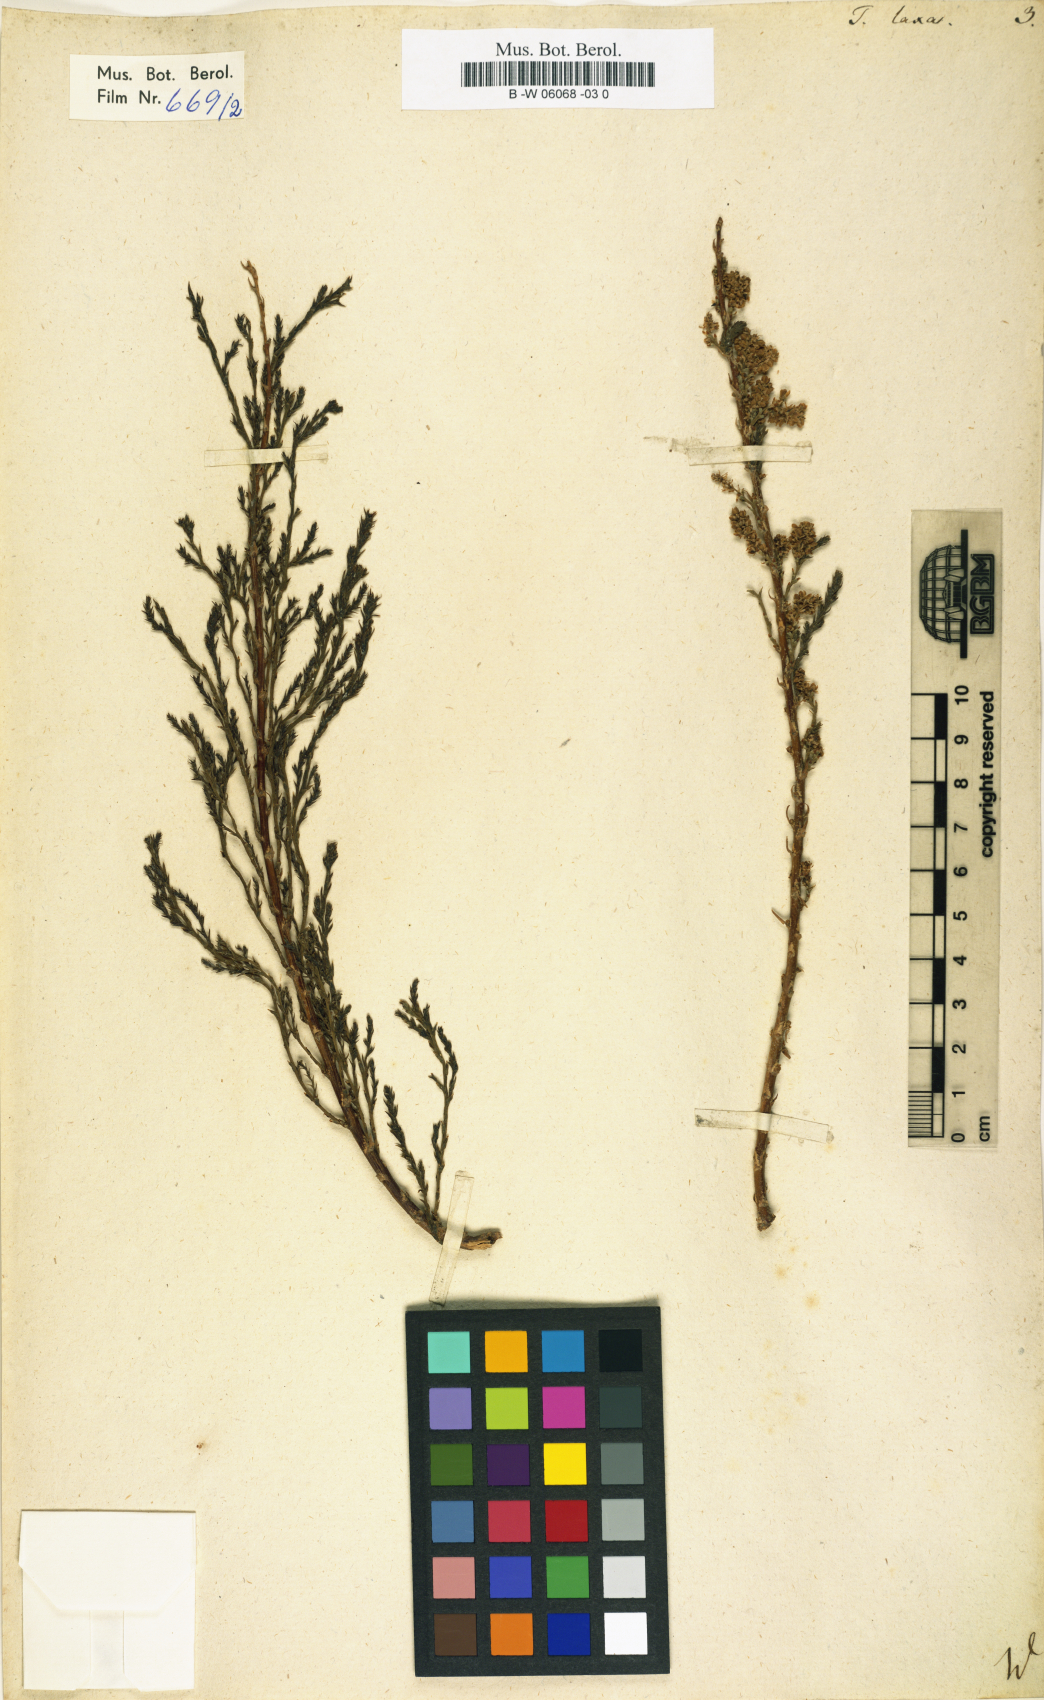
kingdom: Plantae
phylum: Tracheophyta
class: Magnoliopsida
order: Caryophyllales
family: Tamaricaceae
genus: Tamarix
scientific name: Tamarix laxa
